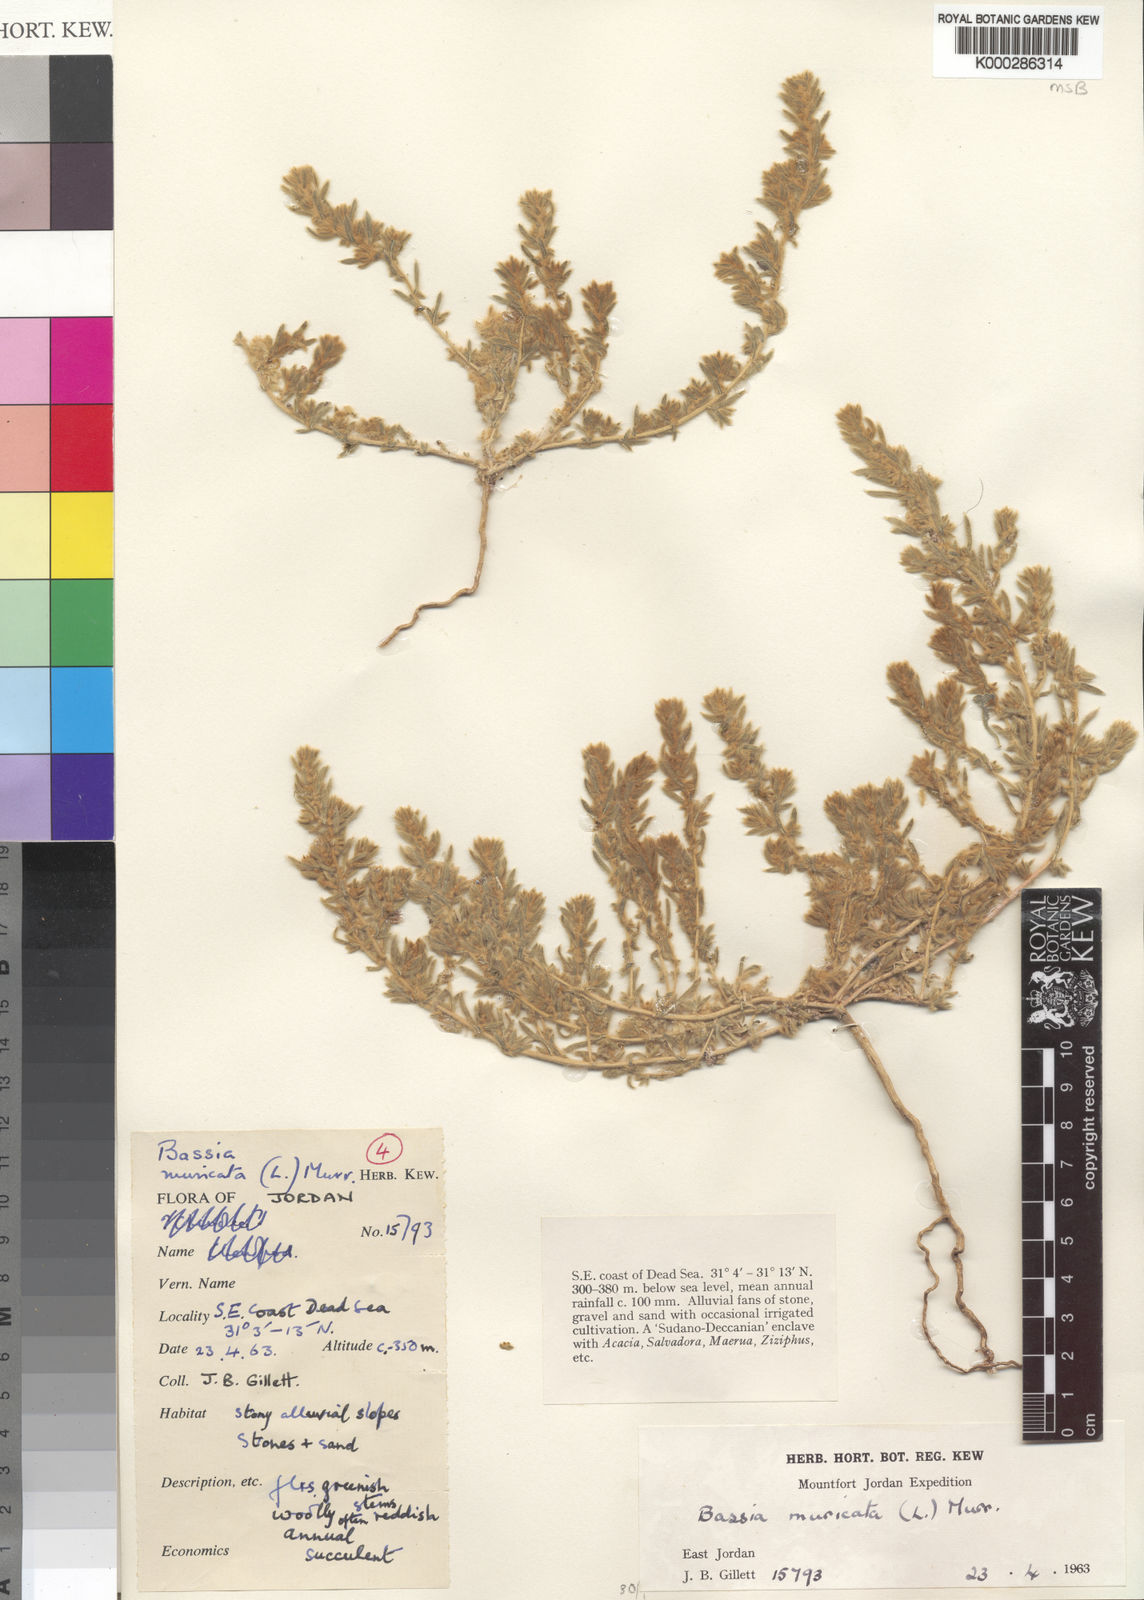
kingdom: Plantae
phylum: Tracheophyta
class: Magnoliopsida
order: Caryophyllales
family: Amaranthaceae
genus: Bassia
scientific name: Bassia muricata
